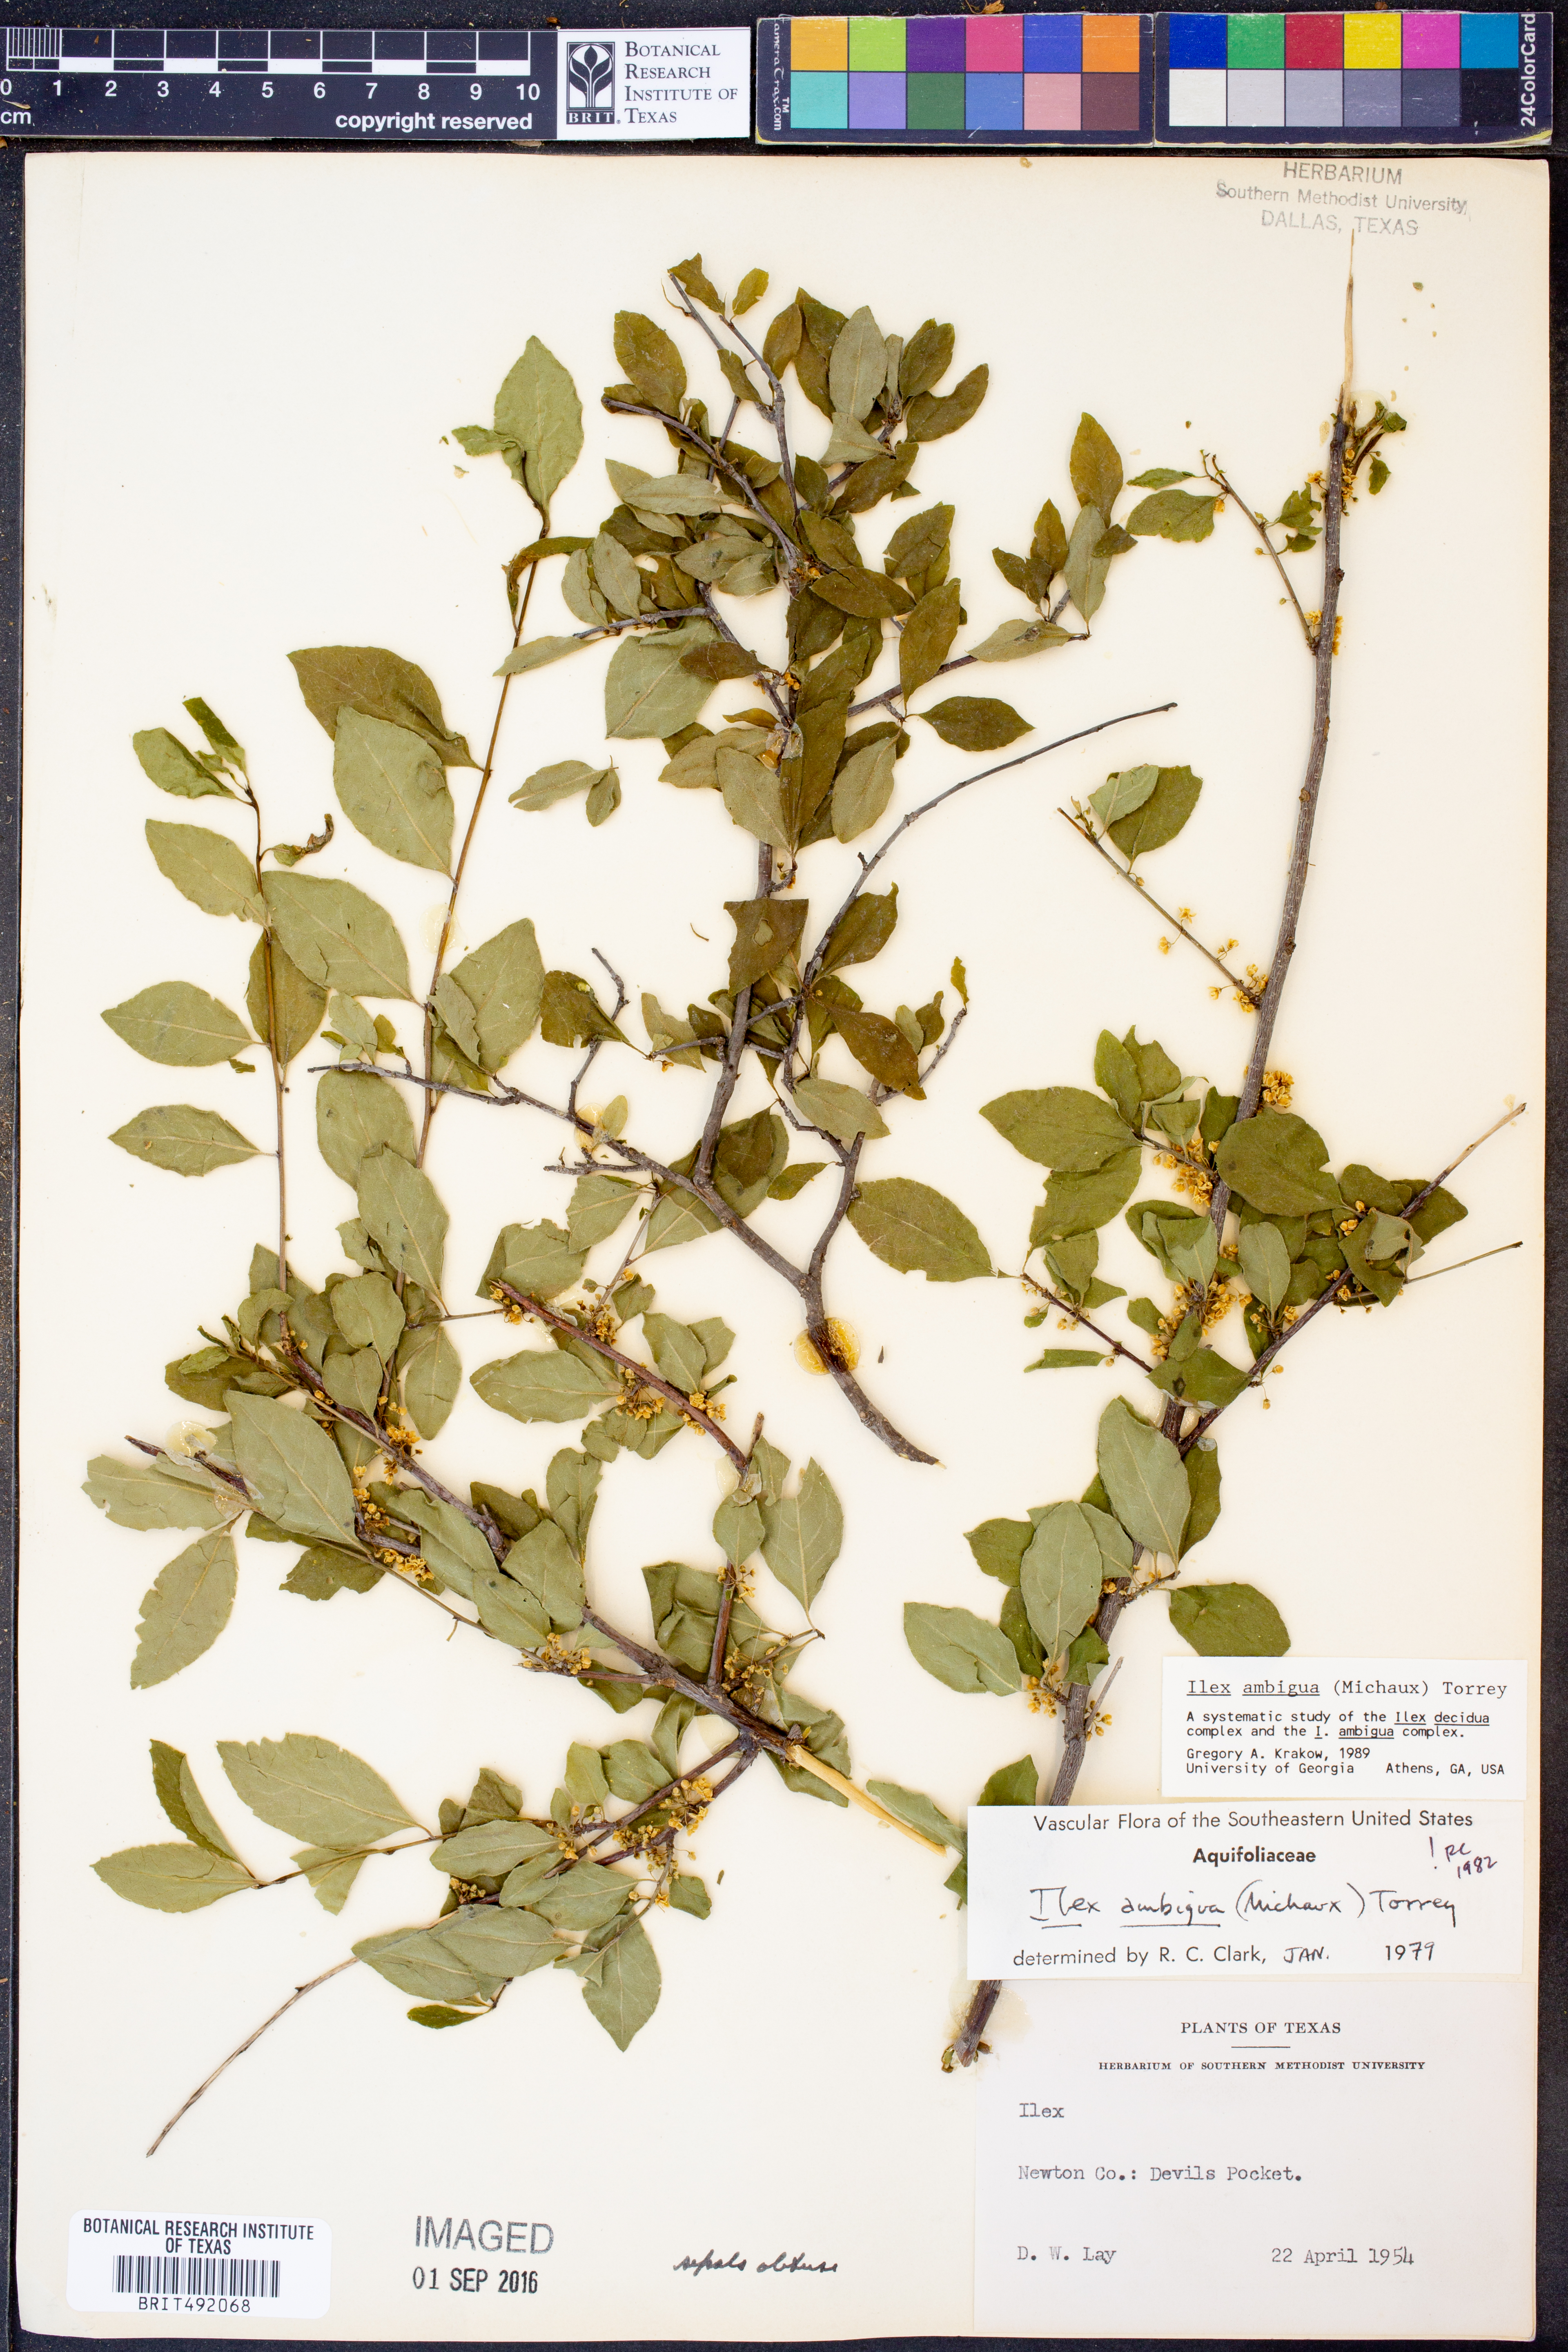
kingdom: Plantae
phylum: Tracheophyta
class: Magnoliopsida
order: Aquifoliales
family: Aquifoliaceae
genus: Ilex
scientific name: Ilex ambigua
